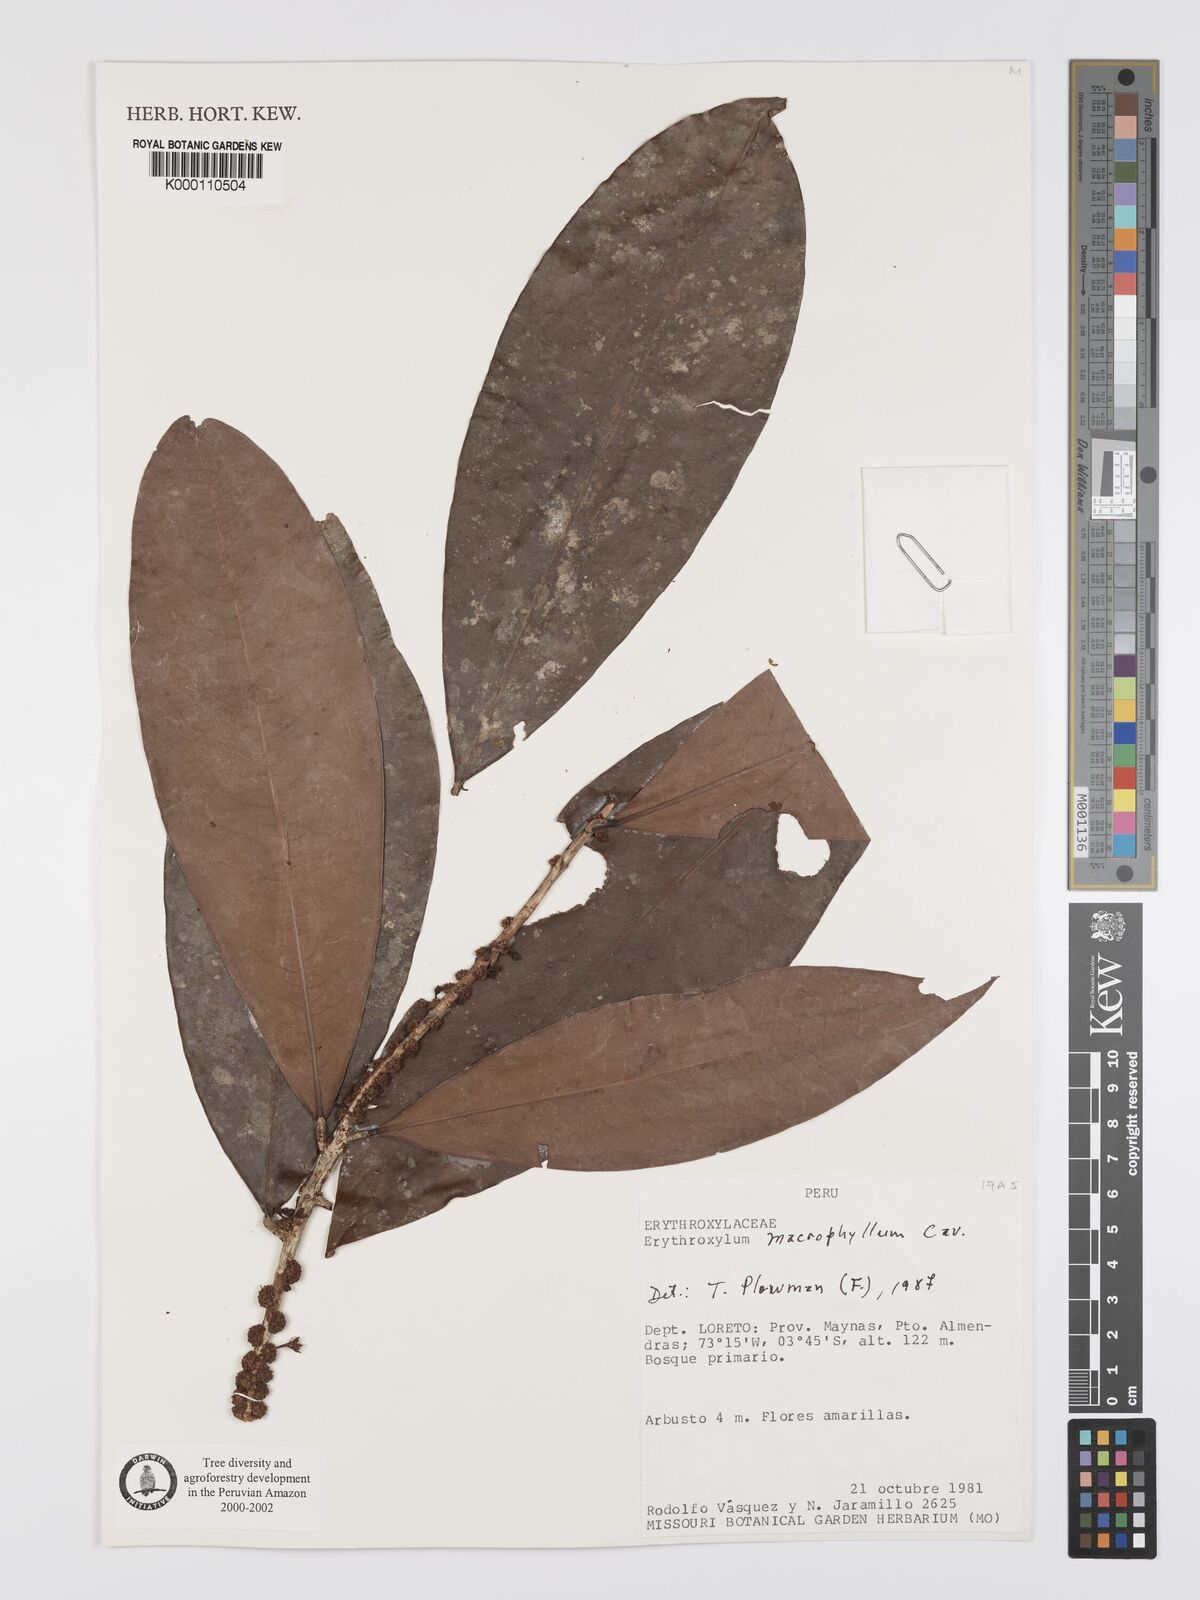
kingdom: Plantae
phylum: Tracheophyta
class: Magnoliopsida
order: Malpighiales
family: Erythroxylaceae
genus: Erythroxylum
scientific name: Erythroxylum
